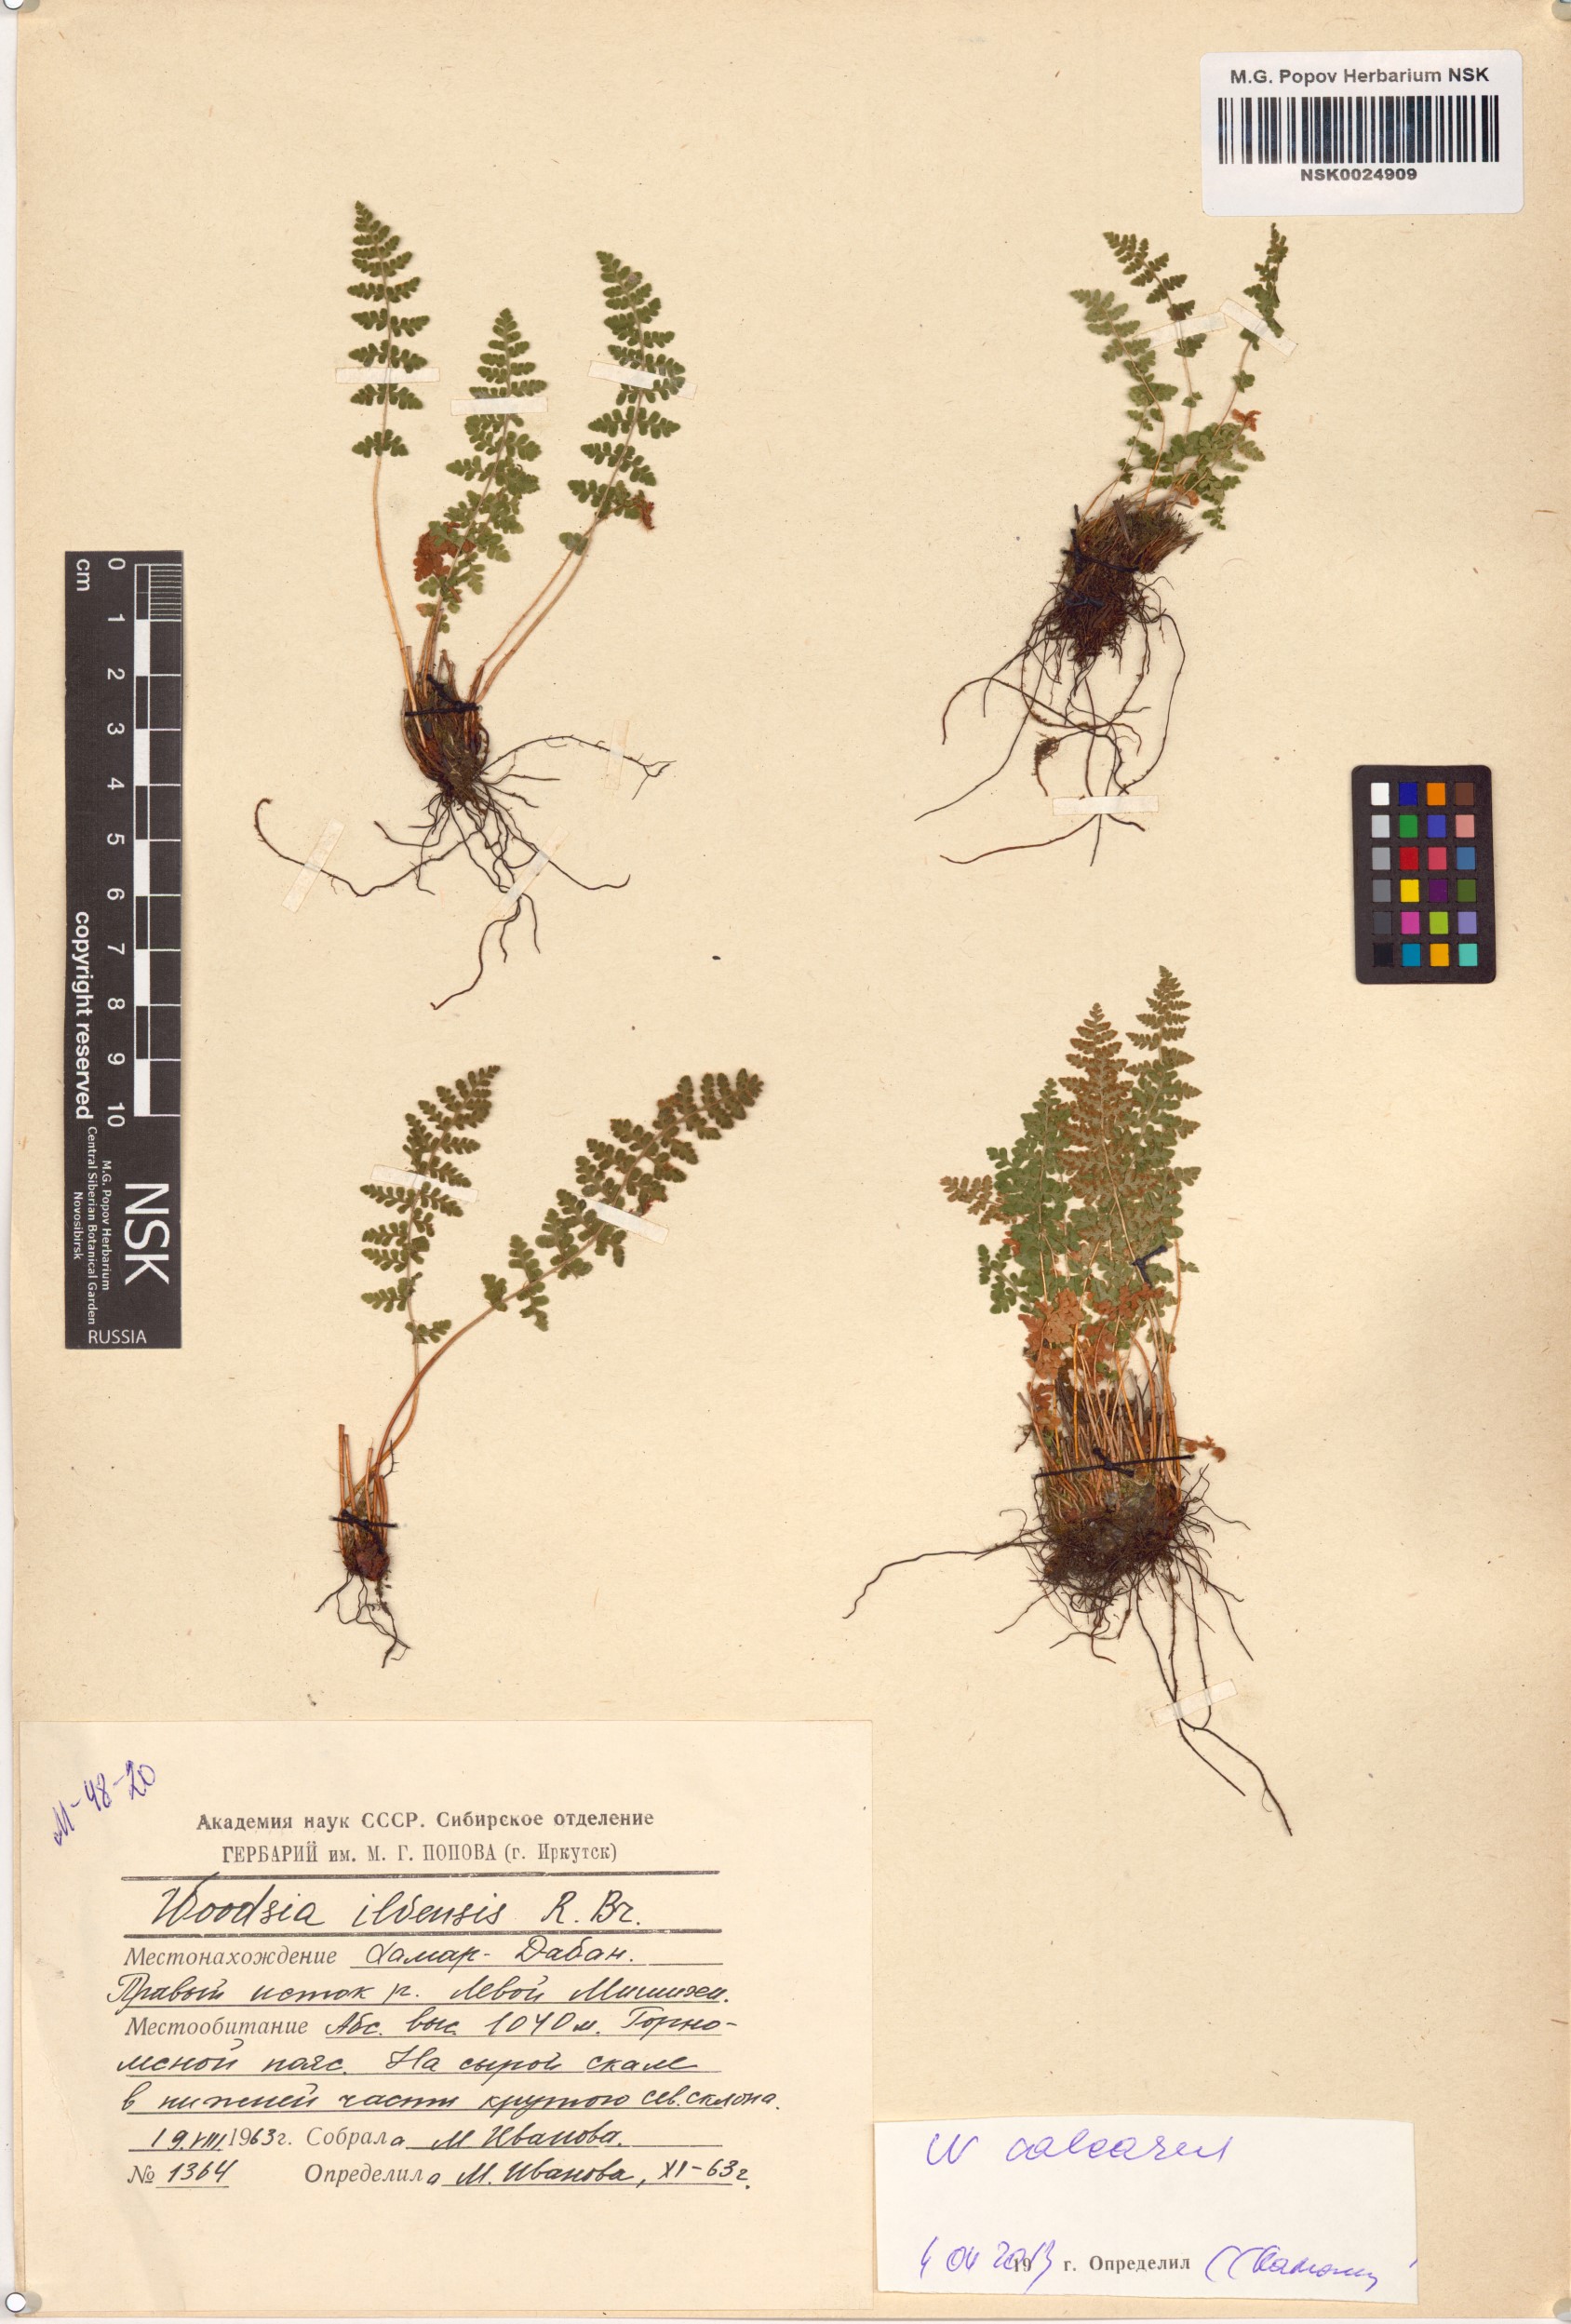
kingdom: Plantae
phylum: Tracheophyta
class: Polypodiopsida
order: Polypodiales
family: Woodsiaceae
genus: Woodsia
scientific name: Woodsia calcarea
